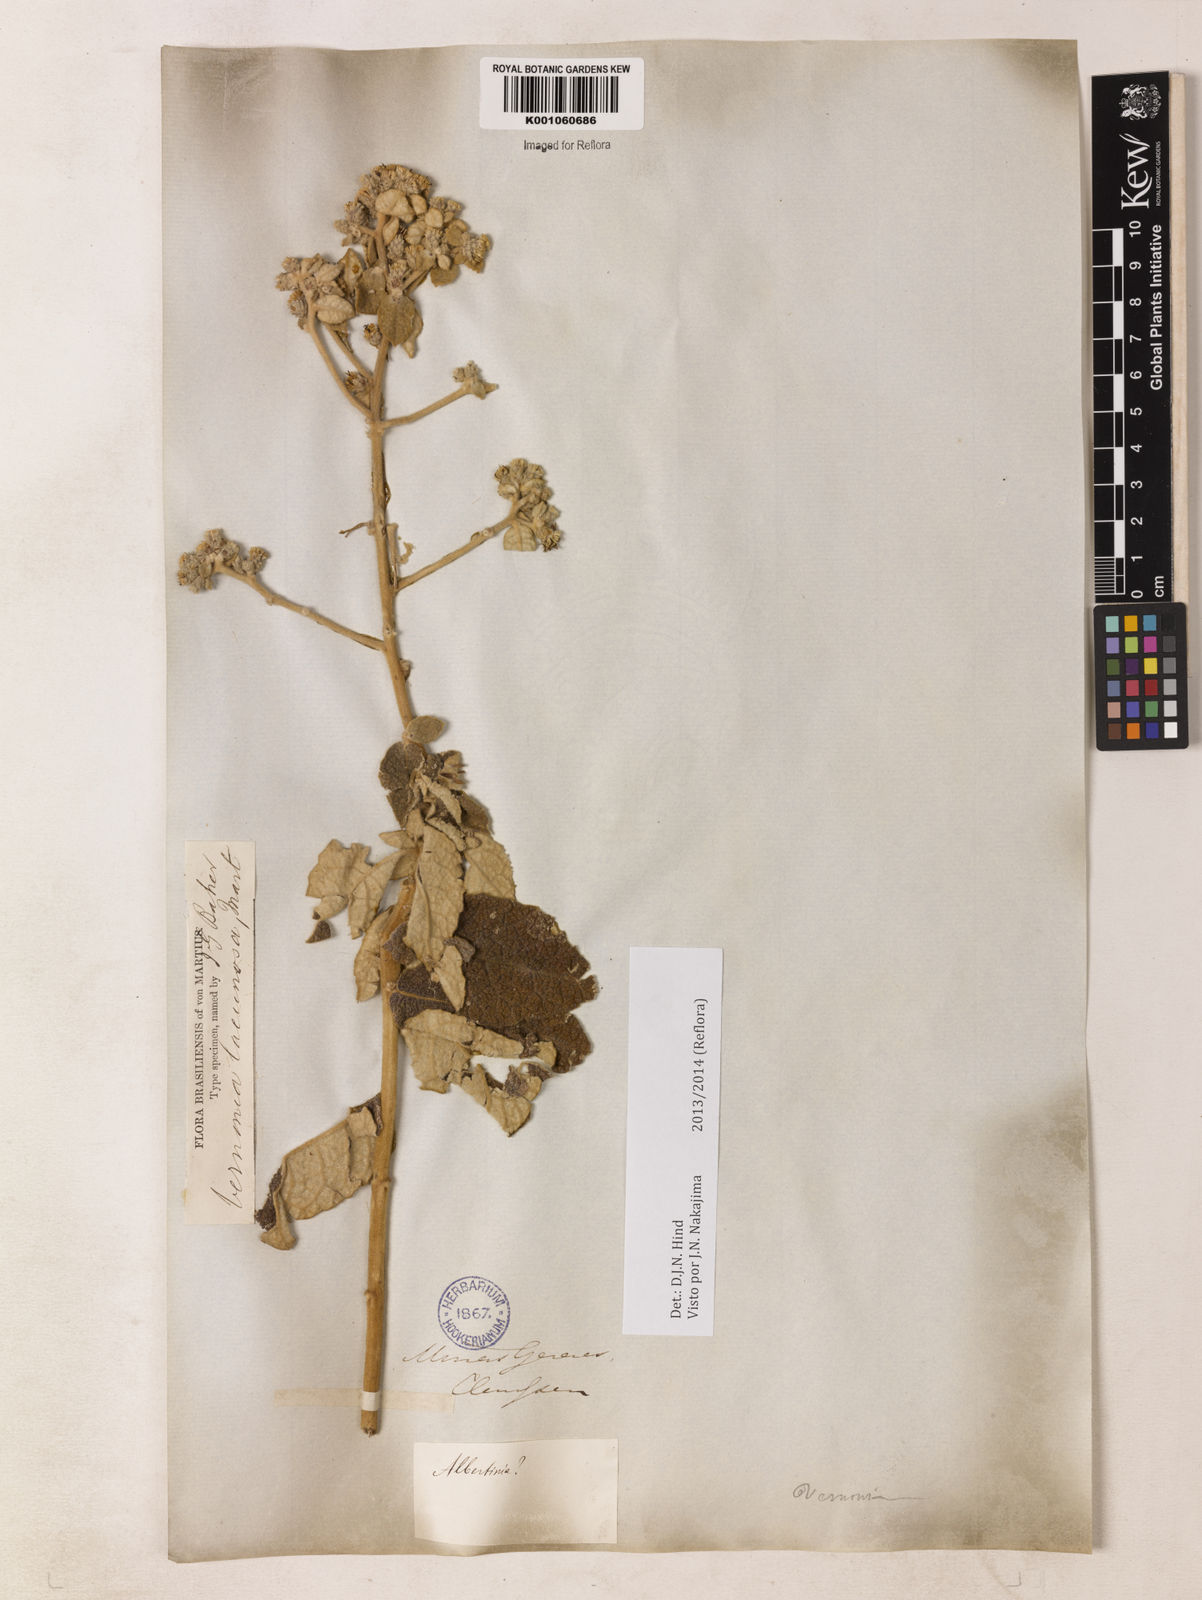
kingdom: Plantae
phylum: Tracheophyta
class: Magnoliopsida
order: Asterales
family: Asteraceae
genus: Lessingianthus
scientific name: Lessingianthus lacunosus
